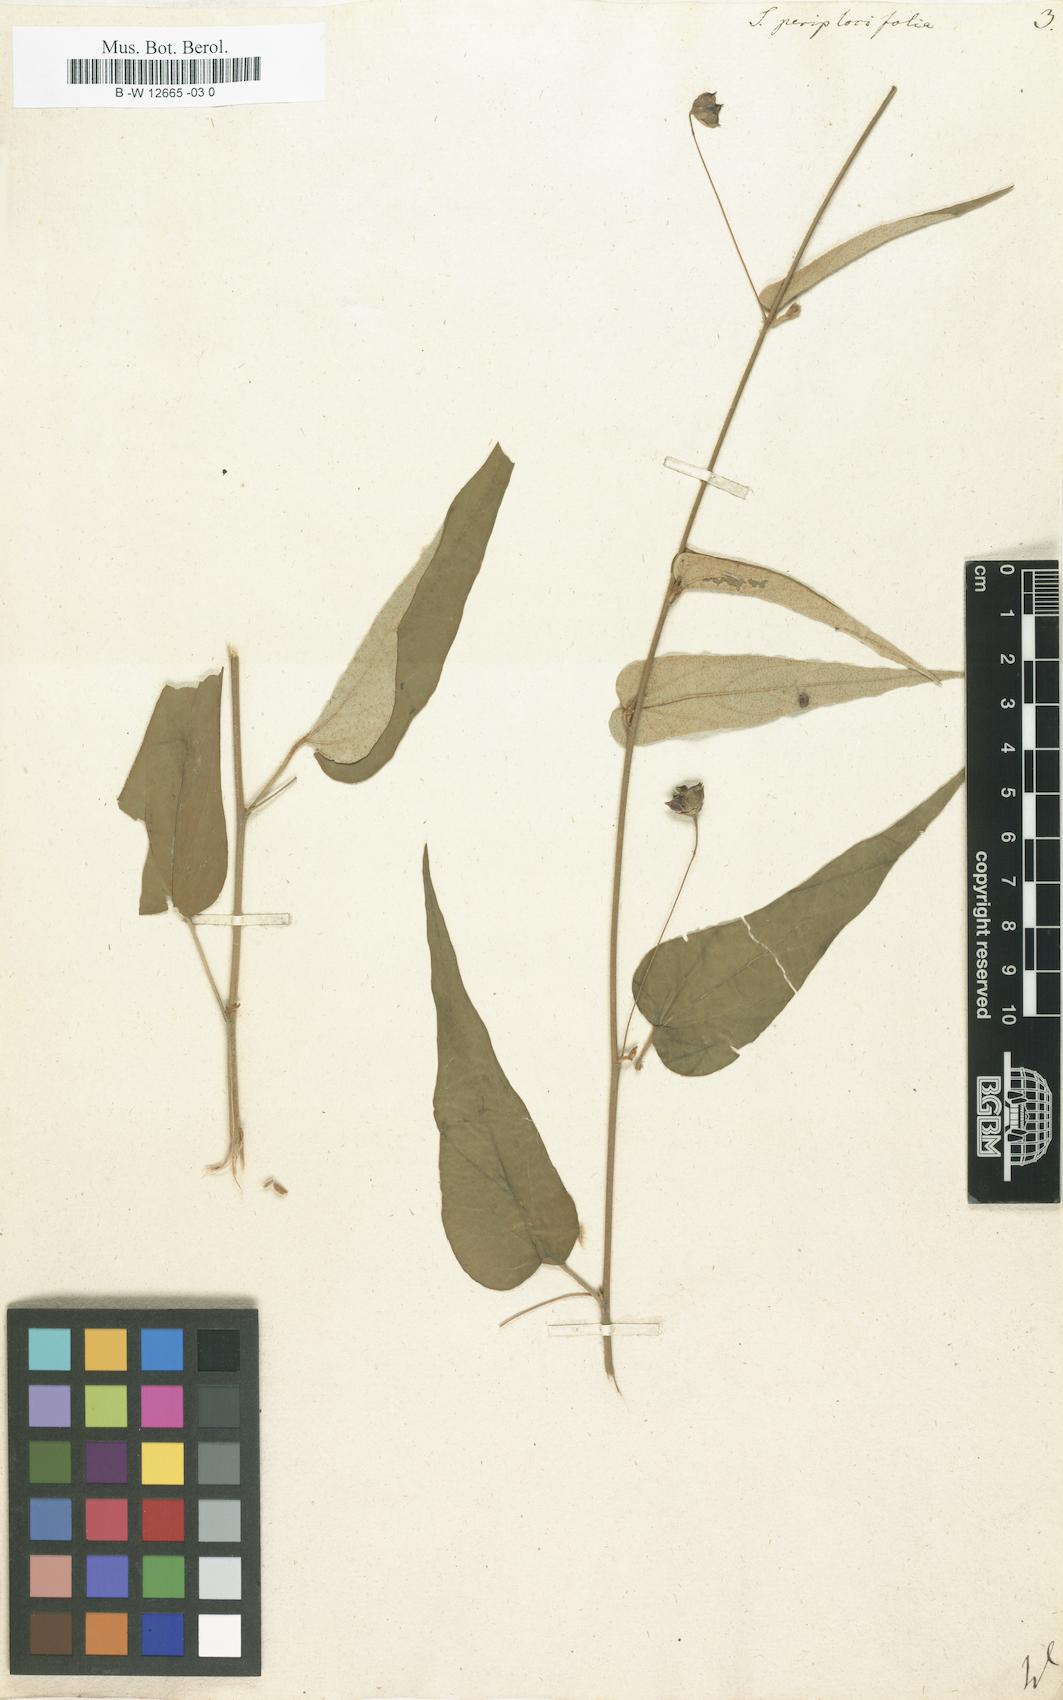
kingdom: Plantae
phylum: Tracheophyta
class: Magnoliopsida
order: Malvales
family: Malvaceae
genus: Wissadula
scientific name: Wissadula periplocifolia
